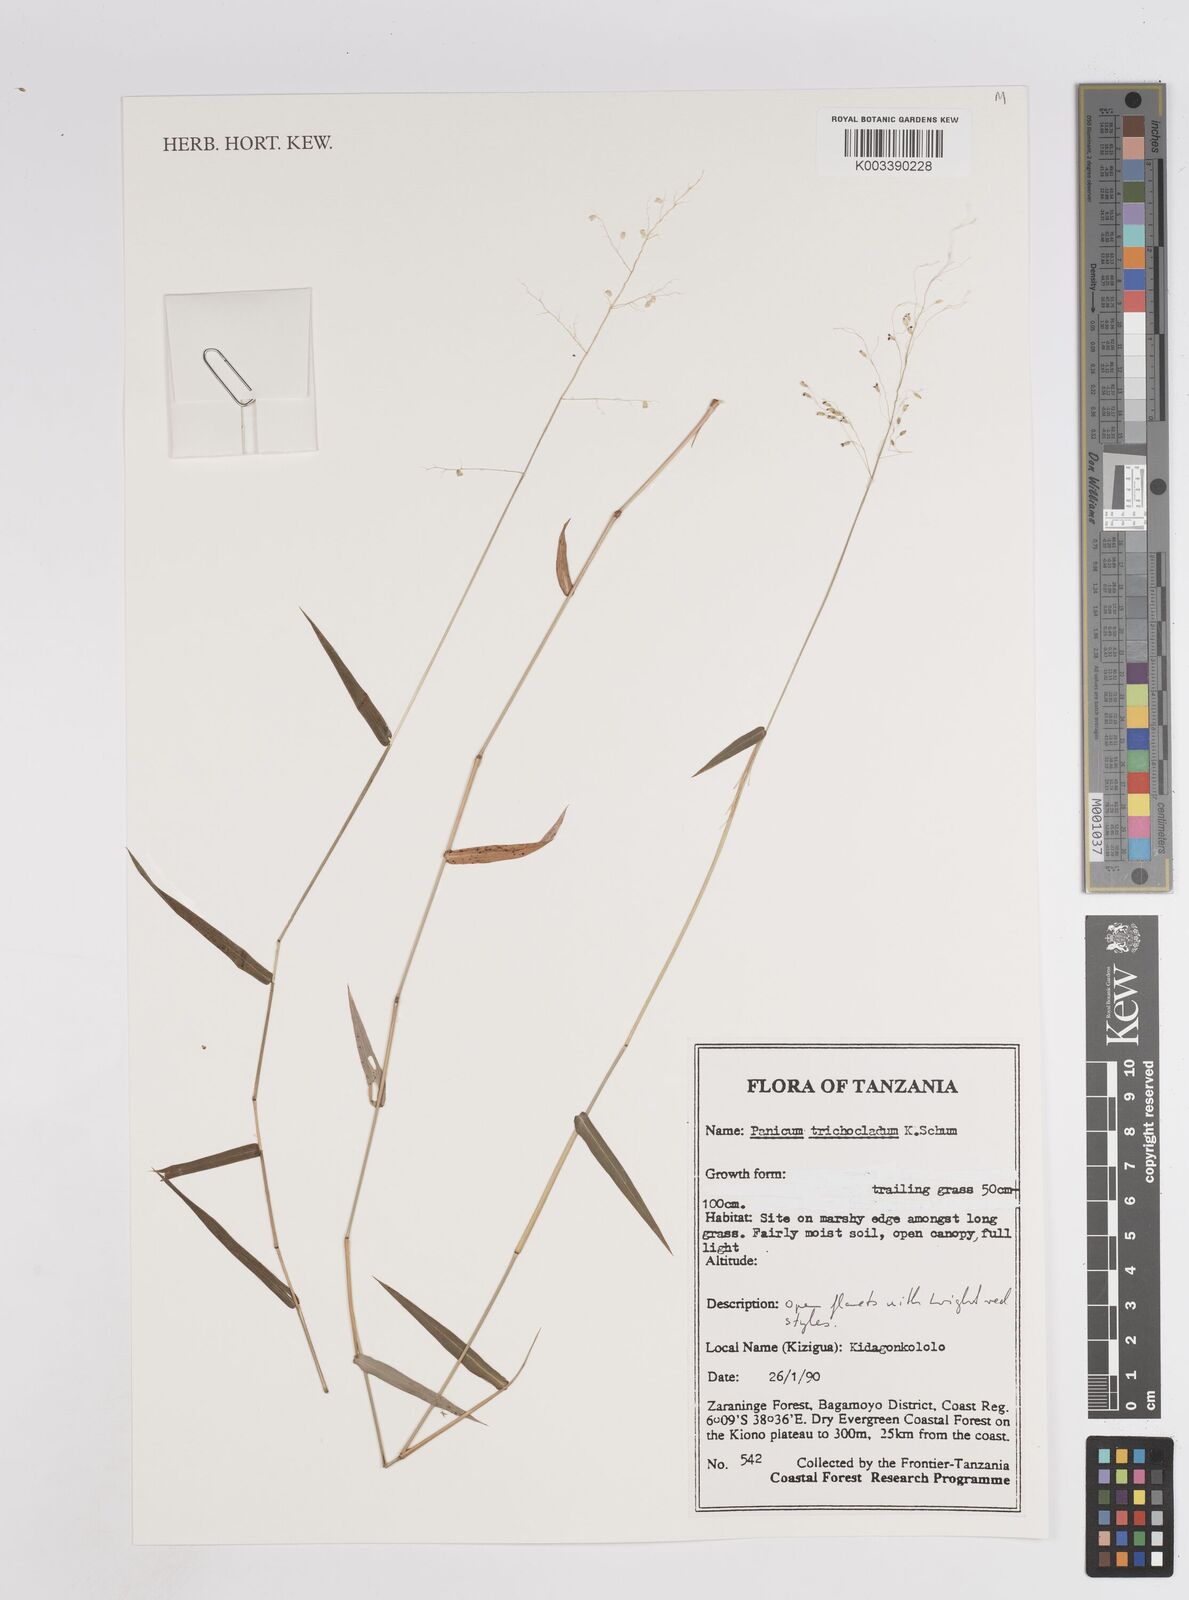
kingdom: Plantae
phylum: Tracheophyta
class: Liliopsida
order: Poales
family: Poaceae
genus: Panicum
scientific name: Panicum trichocladum
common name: Donkey grass
